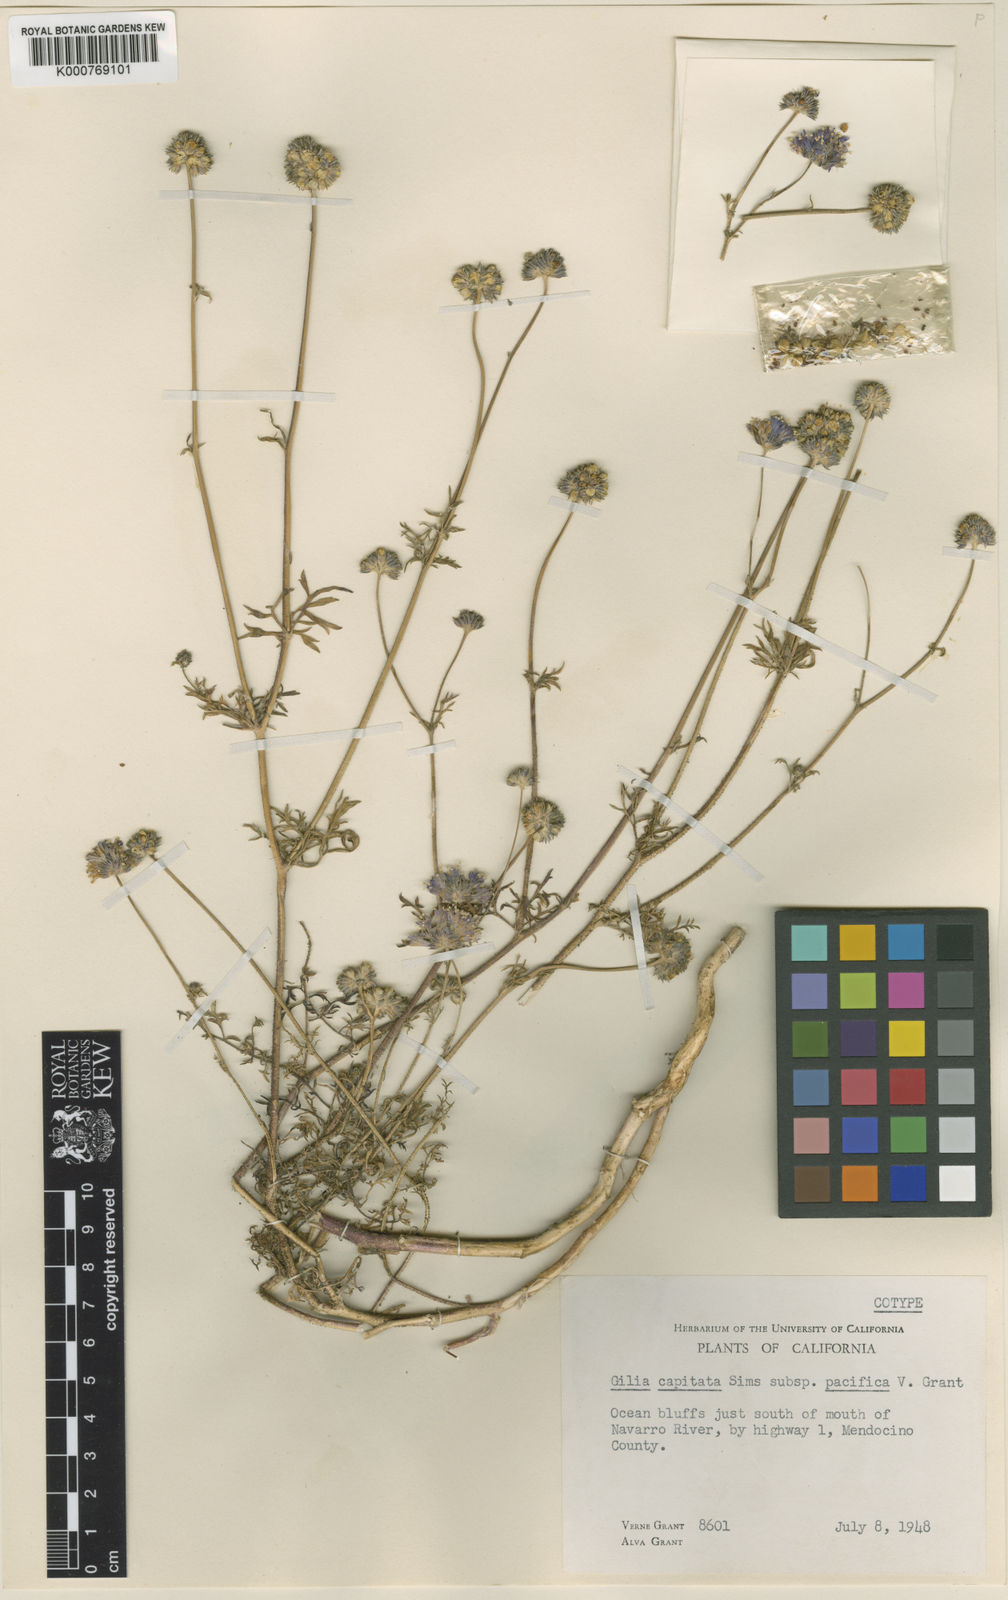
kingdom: Plantae
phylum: Tracheophyta
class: Magnoliopsida
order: Ericales
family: Polemoniaceae
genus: Gilia
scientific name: Gilia capitata
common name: Bluehead gilia
